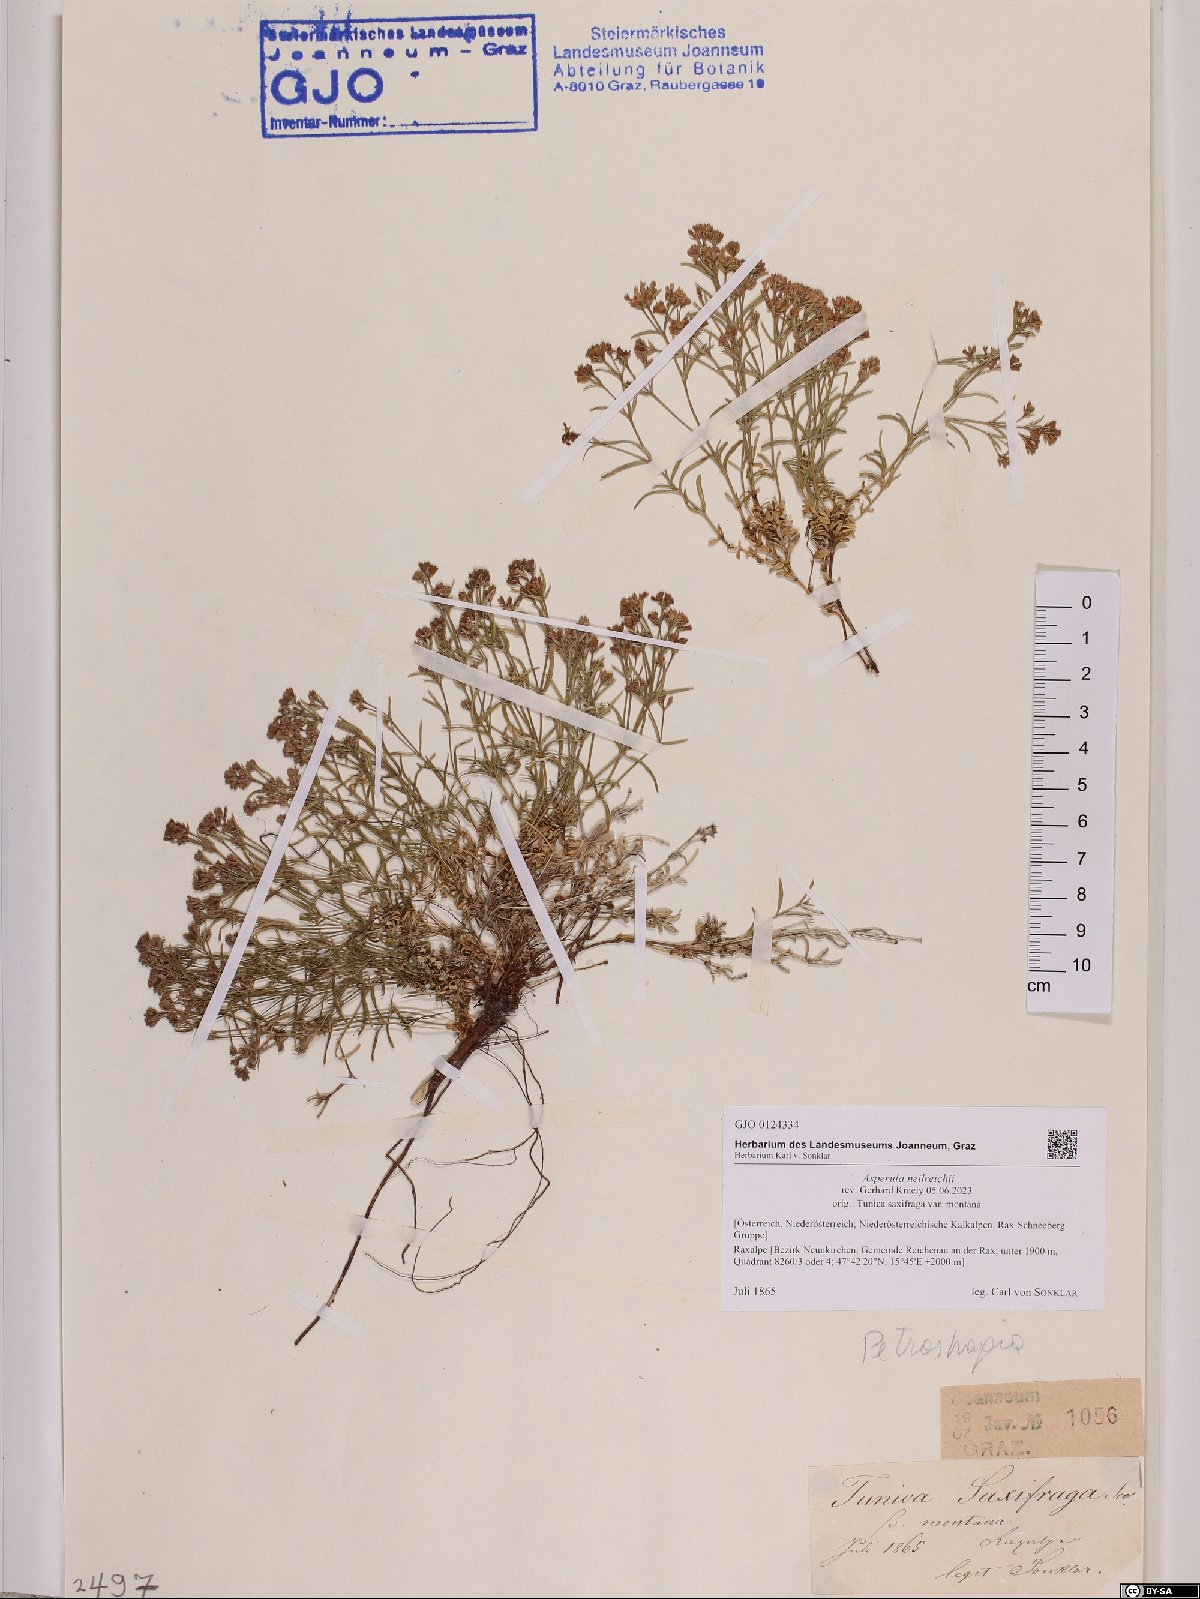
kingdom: Plantae
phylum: Tracheophyta
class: Magnoliopsida
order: Gentianales
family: Rubiaceae
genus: Cynanchica
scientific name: Cynanchica neilreichii
